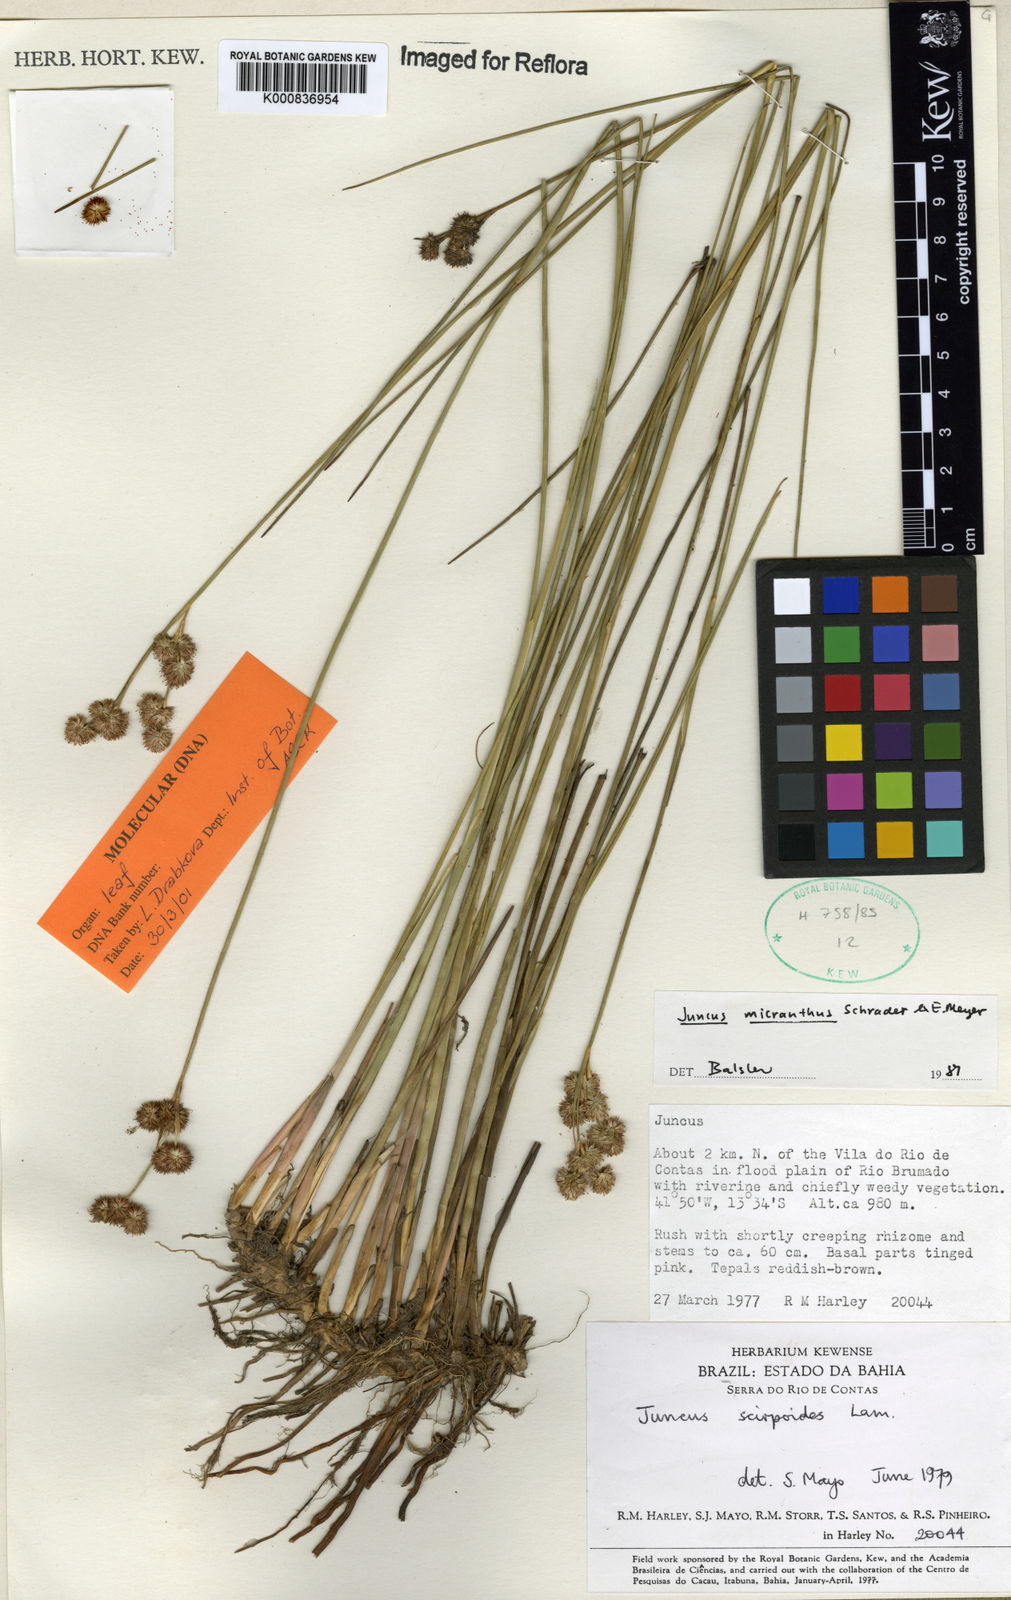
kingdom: Plantae
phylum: Tracheophyta
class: Liliopsida
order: Poales
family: Juncaceae
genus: Juncus
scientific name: Juncus
